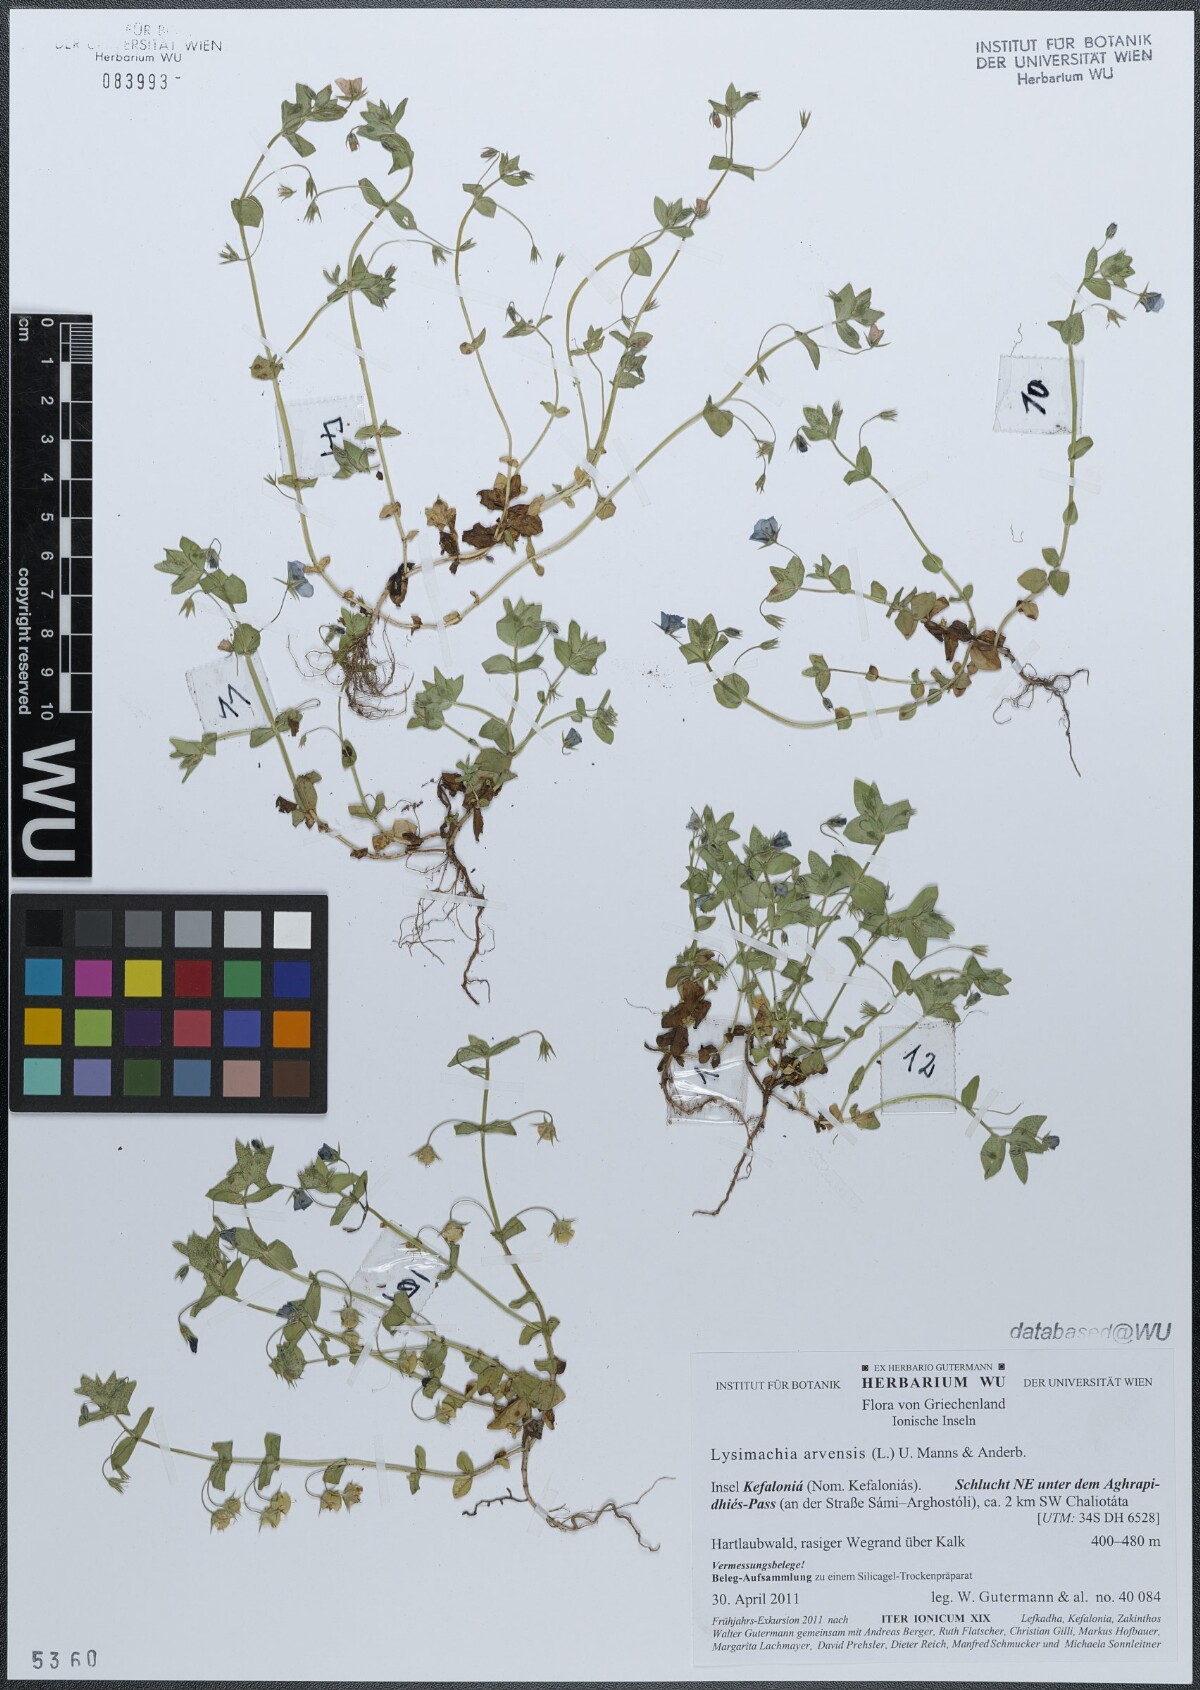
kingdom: Plantae
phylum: Tracheophyta
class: Magnoliopsida
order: Ericales
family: Primulaceae
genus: Lysimachia
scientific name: Lysimachia arvensis
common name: Scarlet pimpernel
